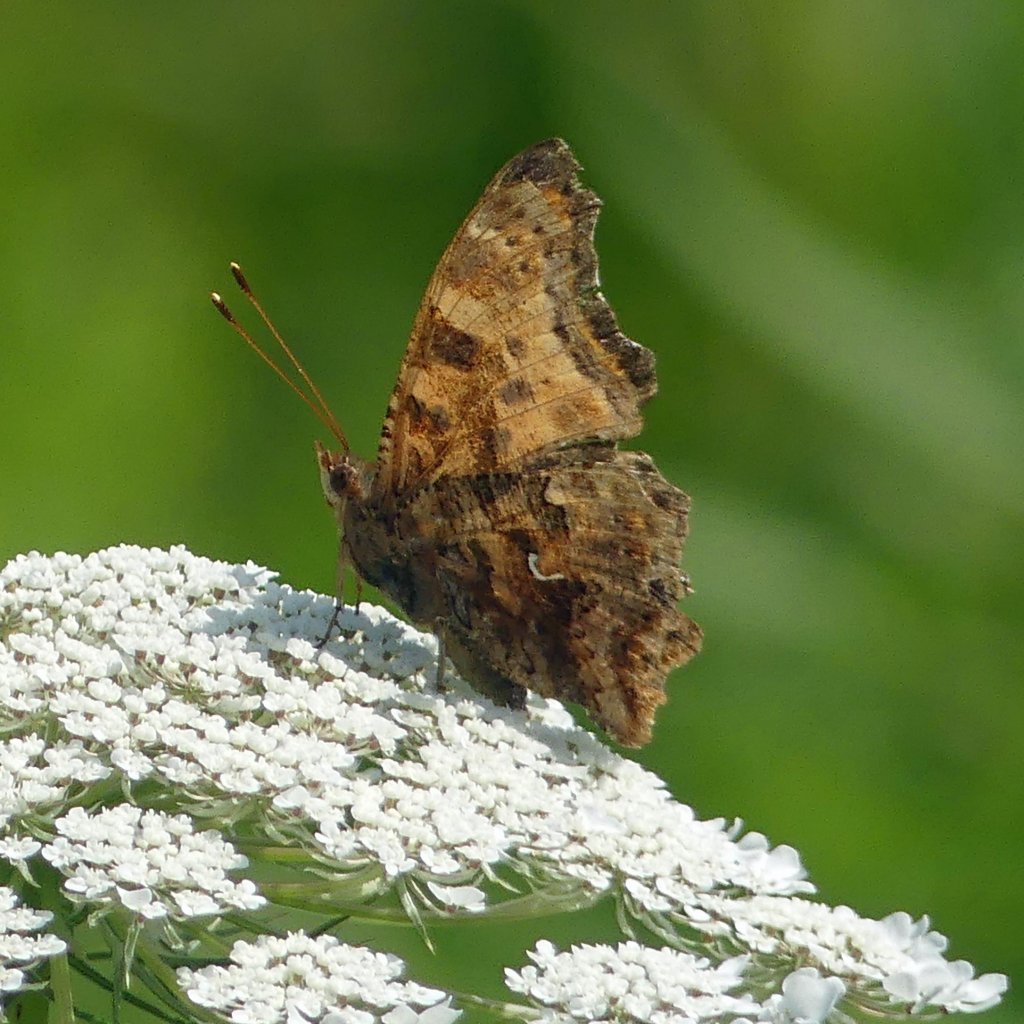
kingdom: Animalia
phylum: Arthropoda
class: Insecta
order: Lepidoptera
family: Nymphalidae
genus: Polygonia
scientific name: Polygonia comma
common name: Eastern Comma
